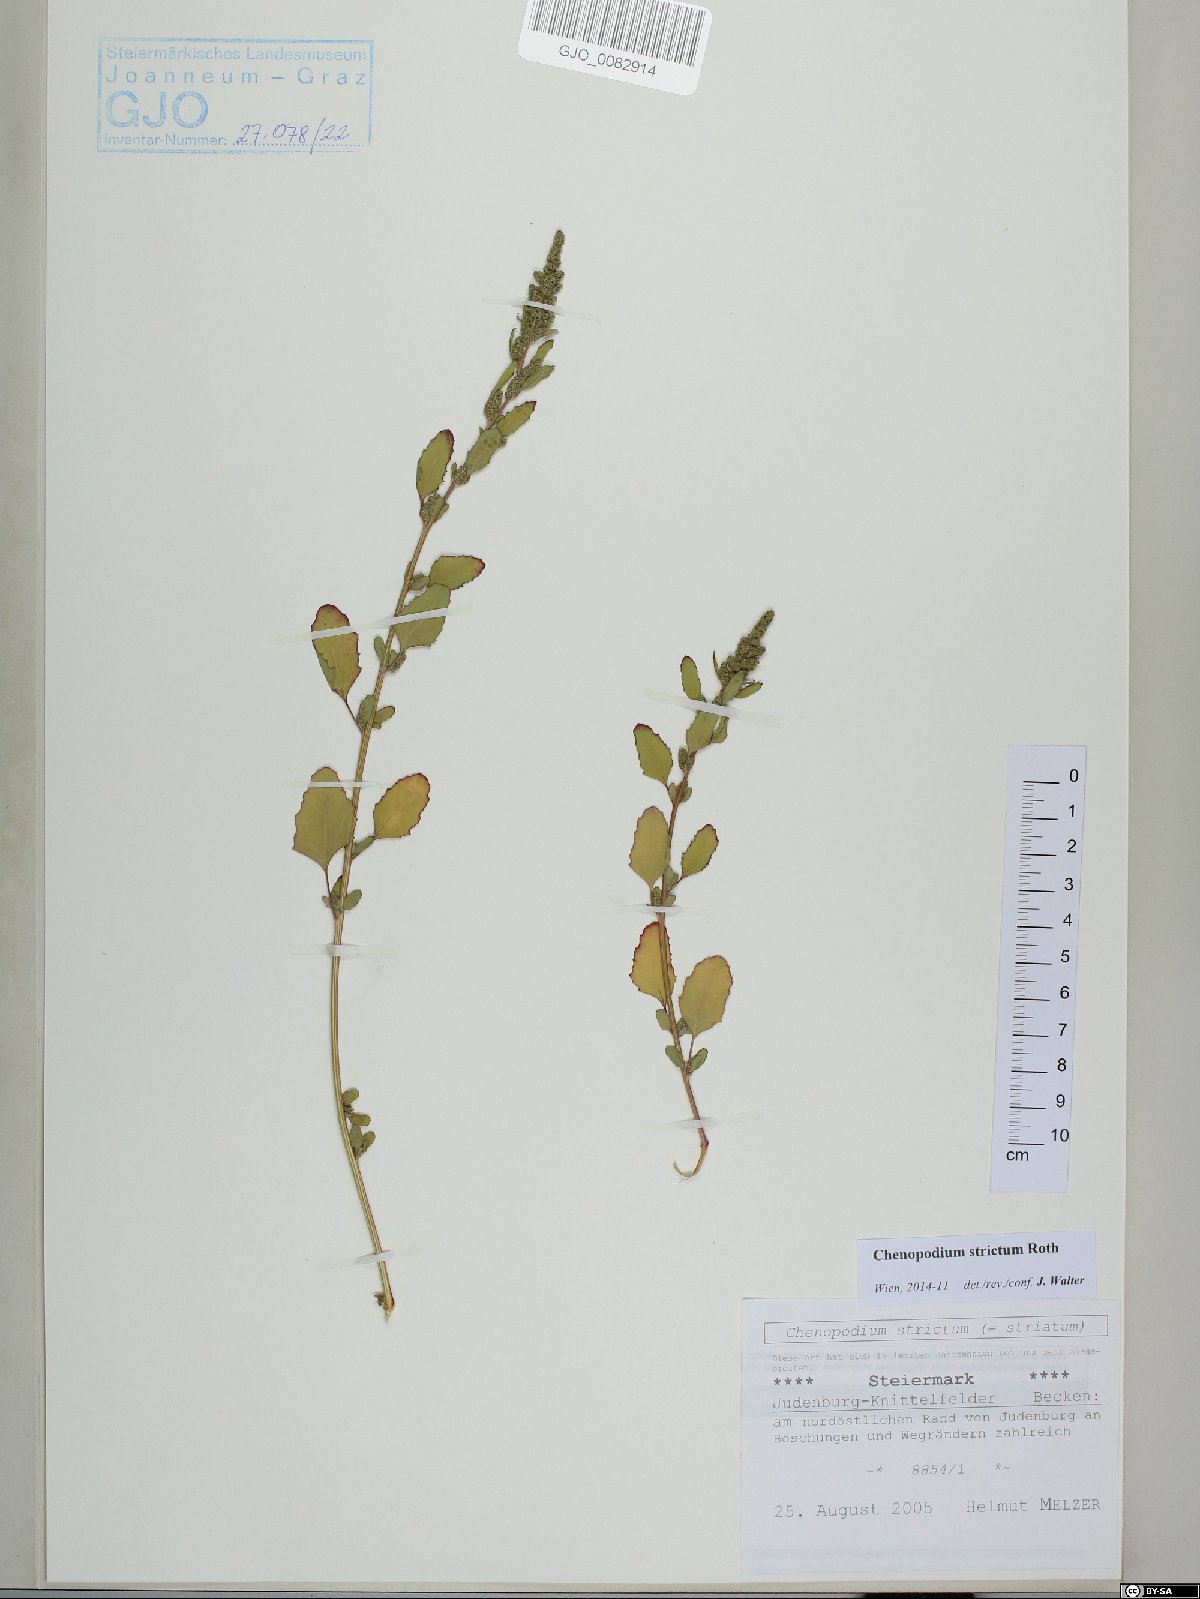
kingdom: Plantae
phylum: Tracheophyta
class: Magnoliopsida
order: Caryophyllales
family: Amaranthaceae
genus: Chenopodium
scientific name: Chenopodium album
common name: Fat-hen
